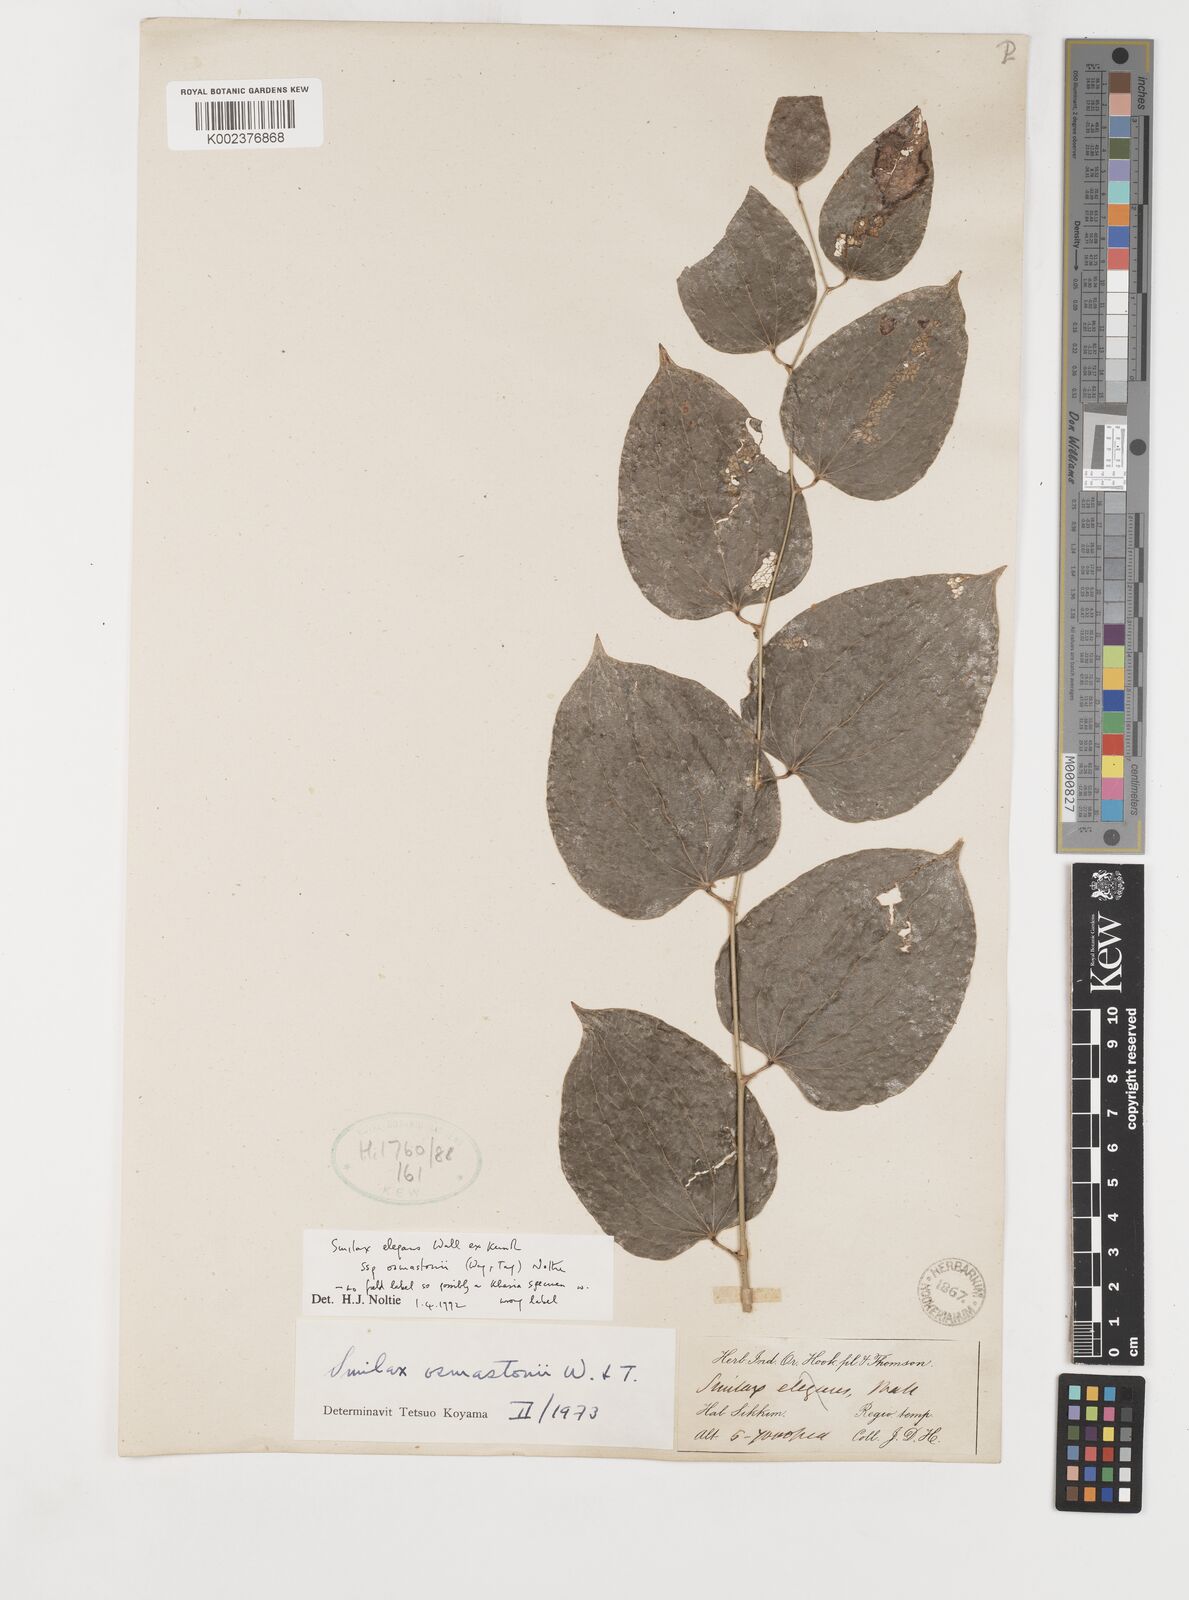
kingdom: Plantae
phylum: Tracheophyta
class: Liliopsida
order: Liliales
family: Smilacaceae
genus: Smilax
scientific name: Smilax elegans
